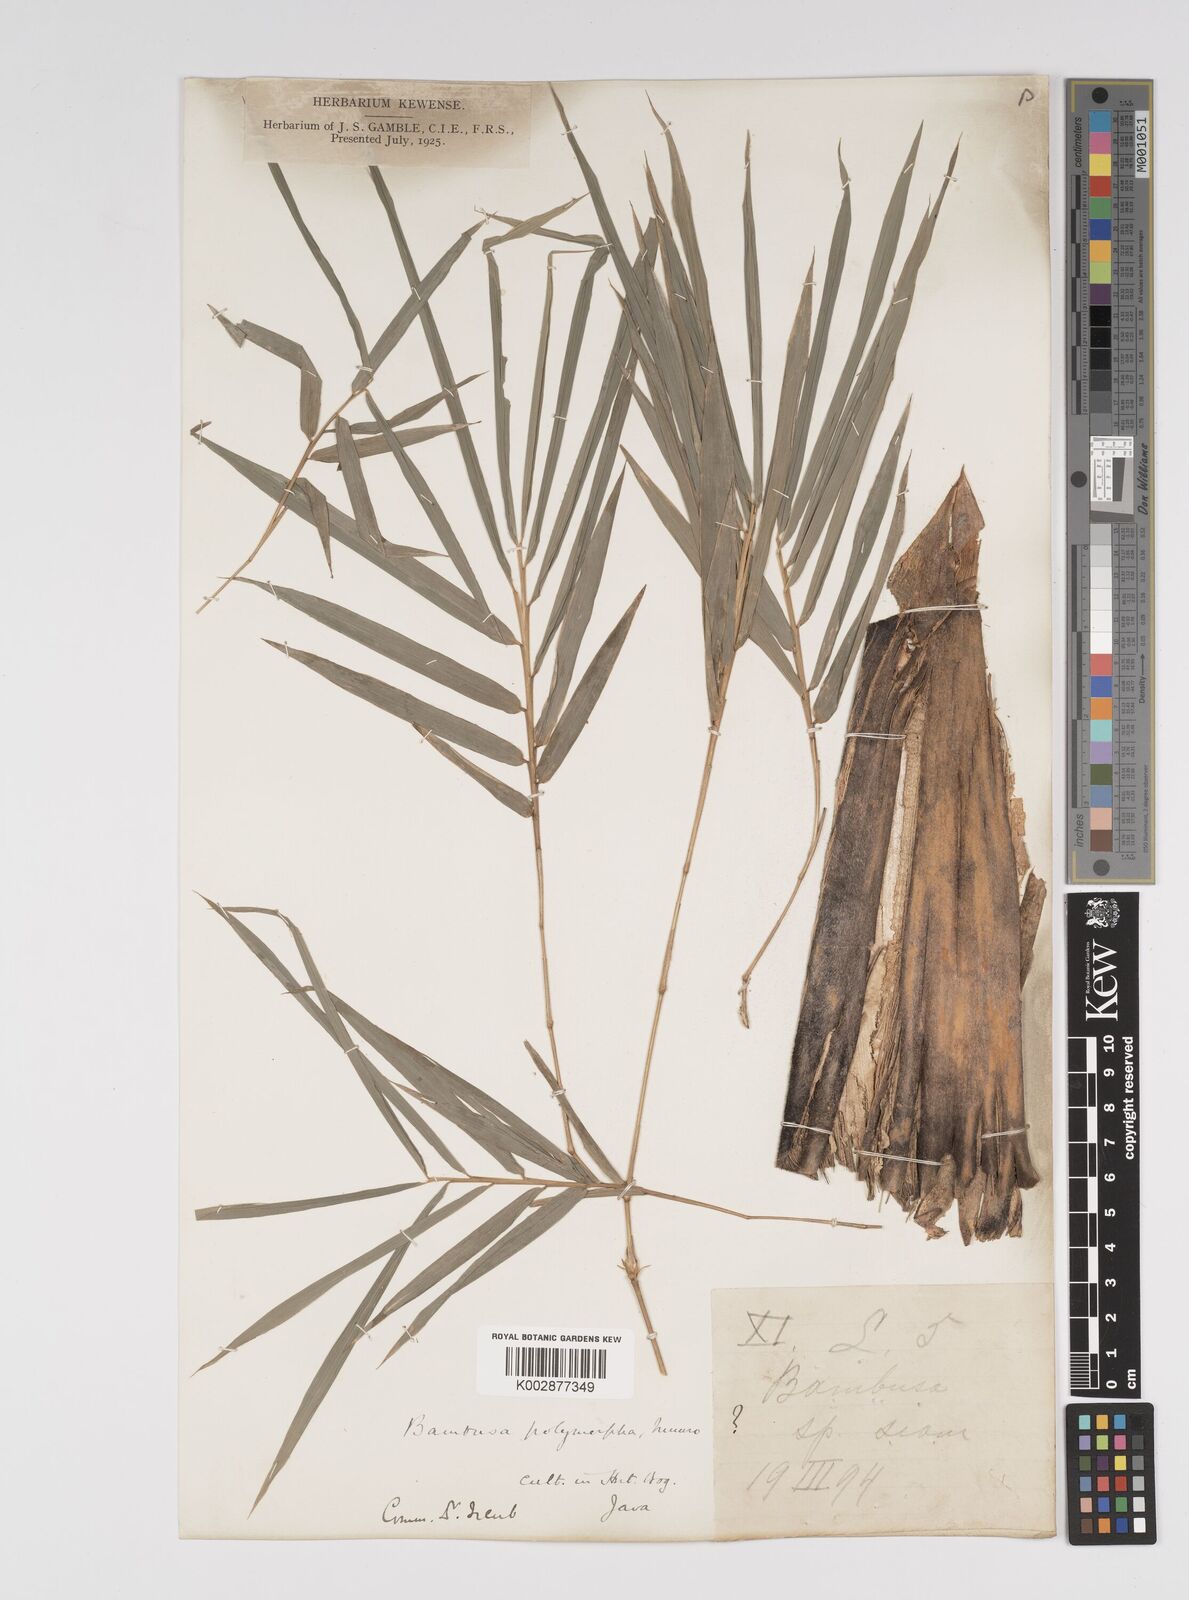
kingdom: Plantae
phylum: Tracheophyta
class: Liliopsida
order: Poales
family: Poaceae
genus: Bambusa
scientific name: Bambusa polymorpha
